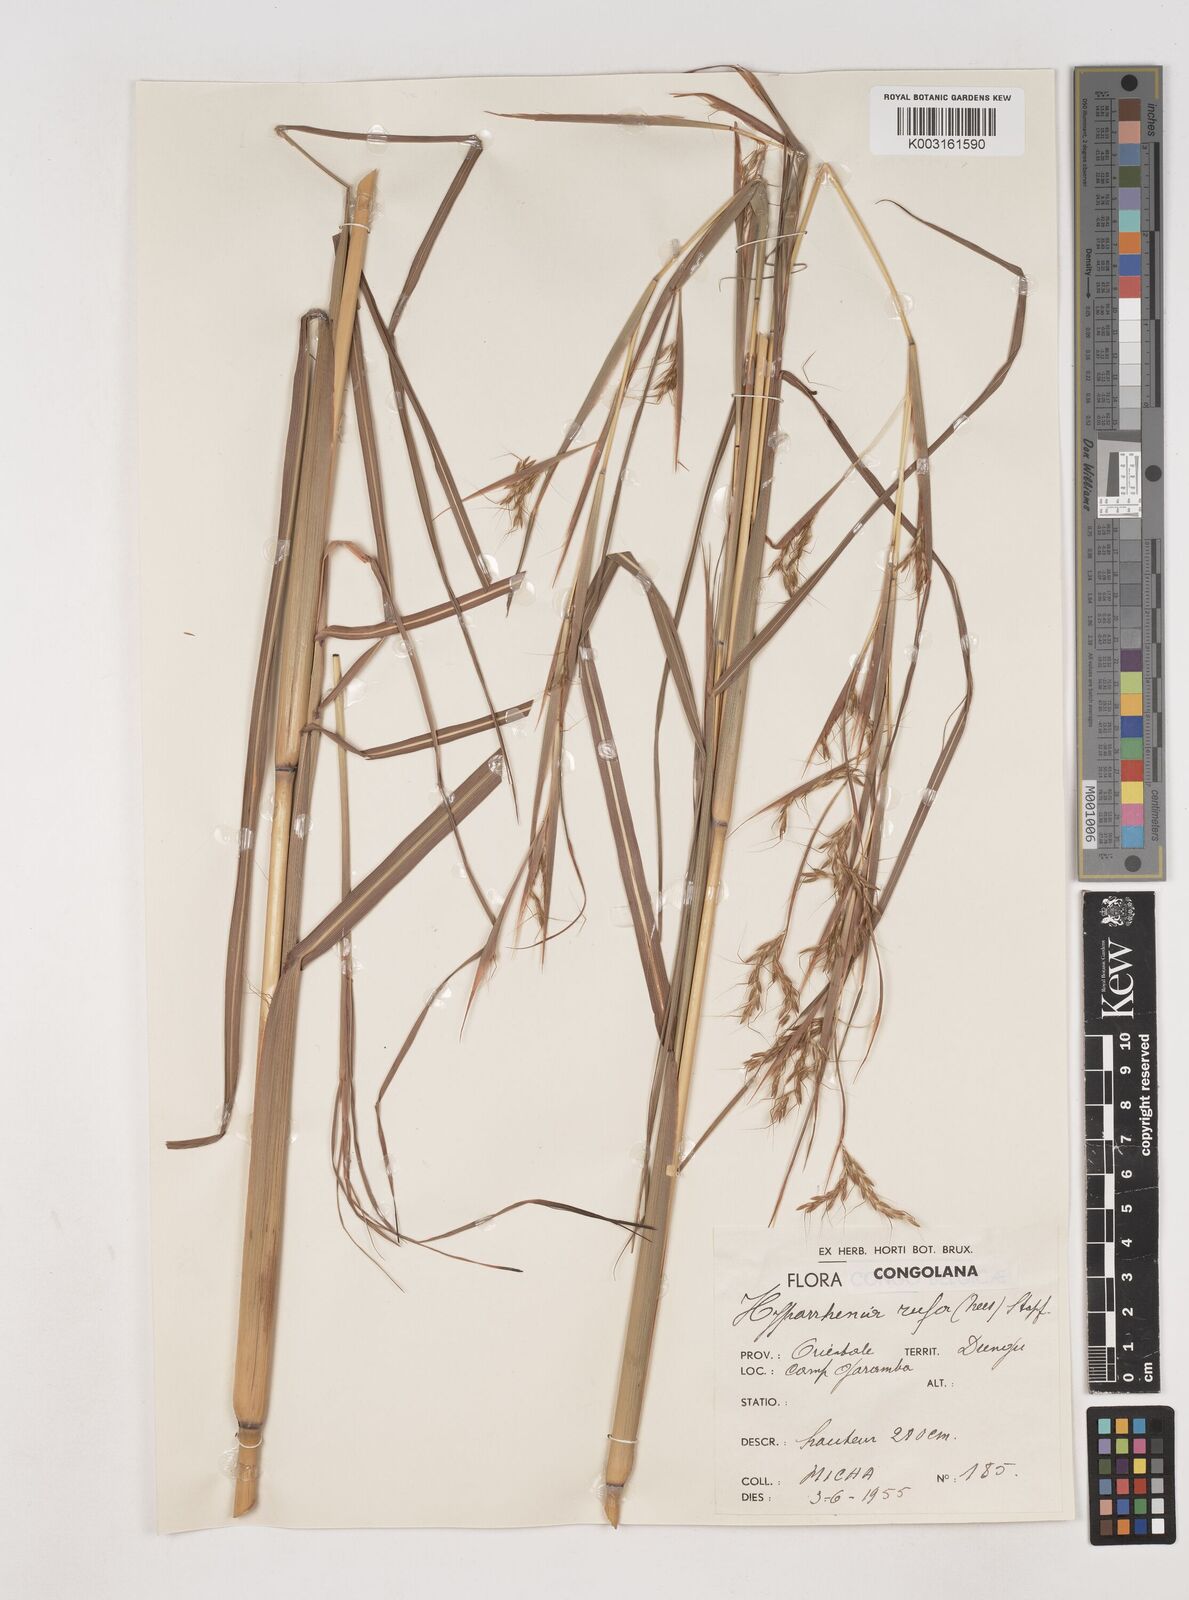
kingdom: Plantae
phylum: Tracheophyta
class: Liliopsida
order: Poales
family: Poaceae
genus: Hyparrhenia
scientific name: Hyparrhenia rufa
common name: Jaraguagrass
